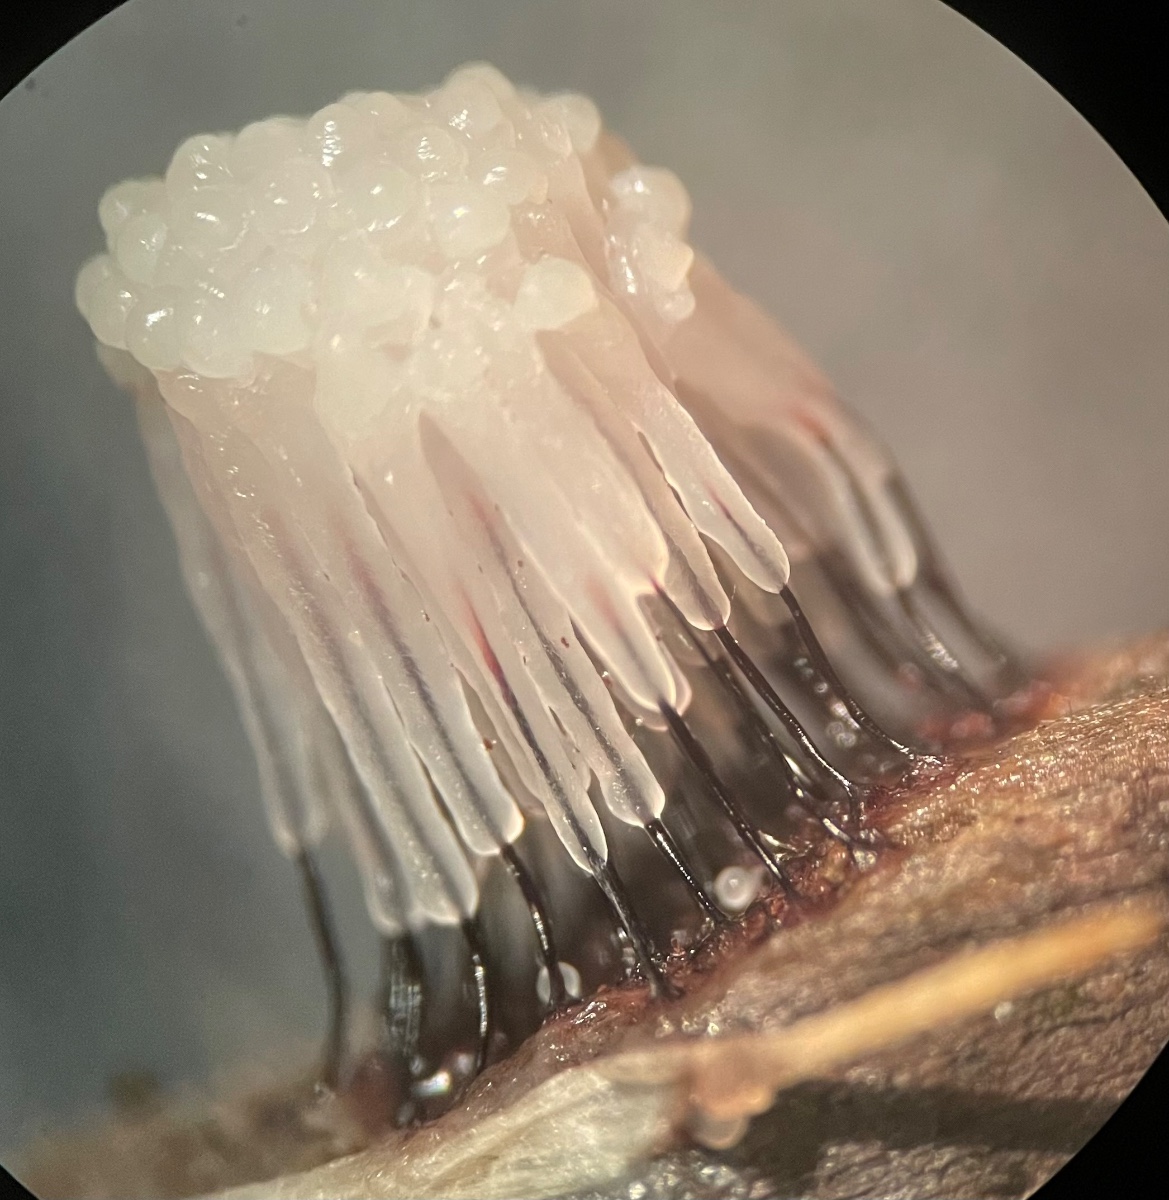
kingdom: Protozoa
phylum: Mycetozoa
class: Myxomycetes
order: Stemonitidales
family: Stemonitidaceae
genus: Stemonitis
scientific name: Stemonitis
